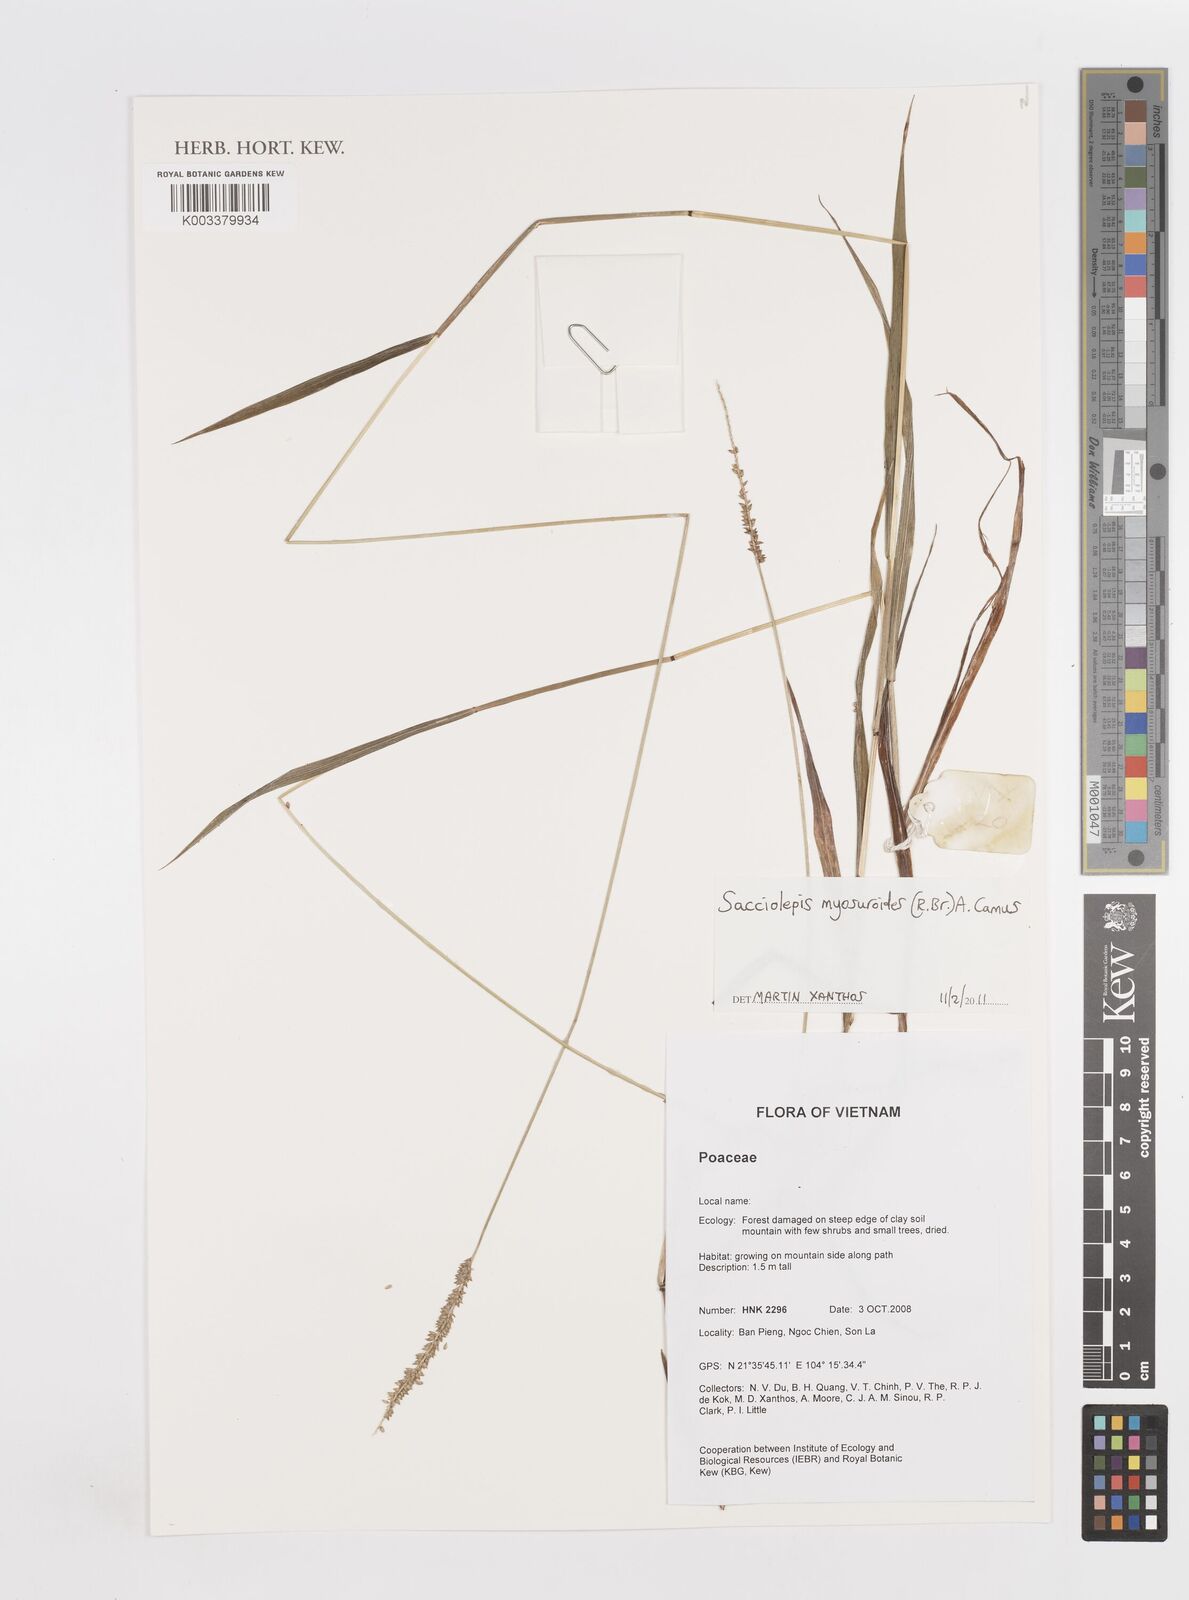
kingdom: Plantae
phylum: Tracheophyta
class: Liliopsida
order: Poales
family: Poaceae
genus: Sacciolepis
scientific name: Sacciolepis myosuroides
